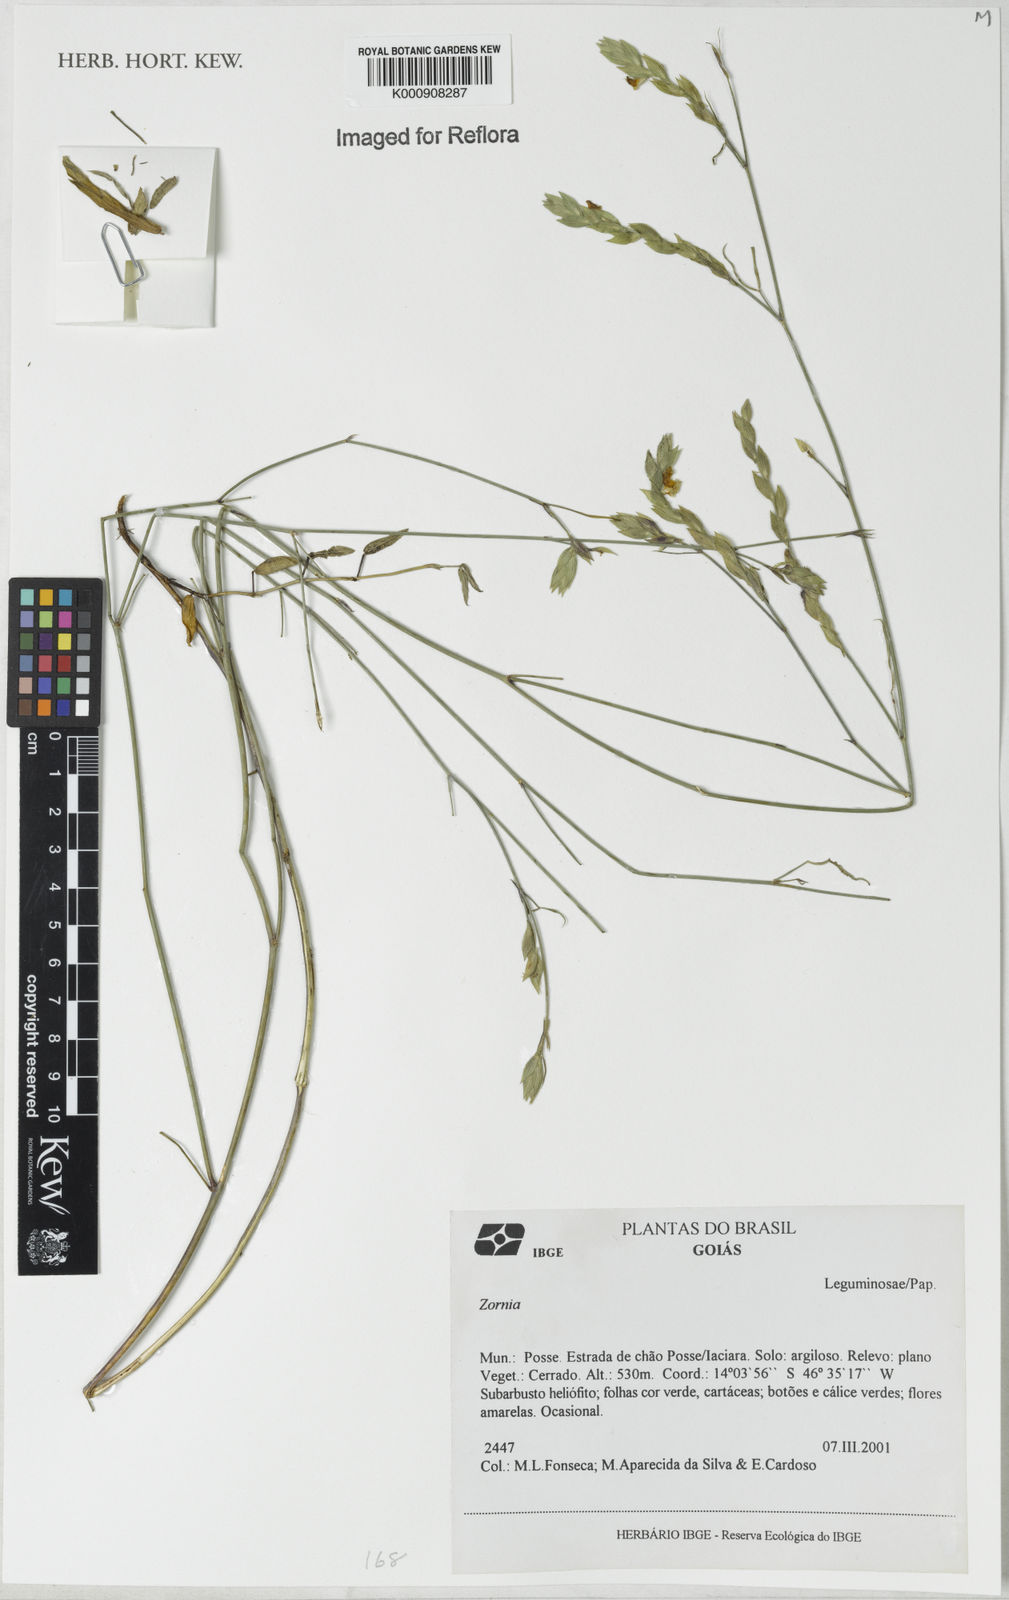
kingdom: Plantae
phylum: Tracheophyta
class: Magnoliopsida
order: Fabales
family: Fabaceae
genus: Zornia
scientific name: Zornia
